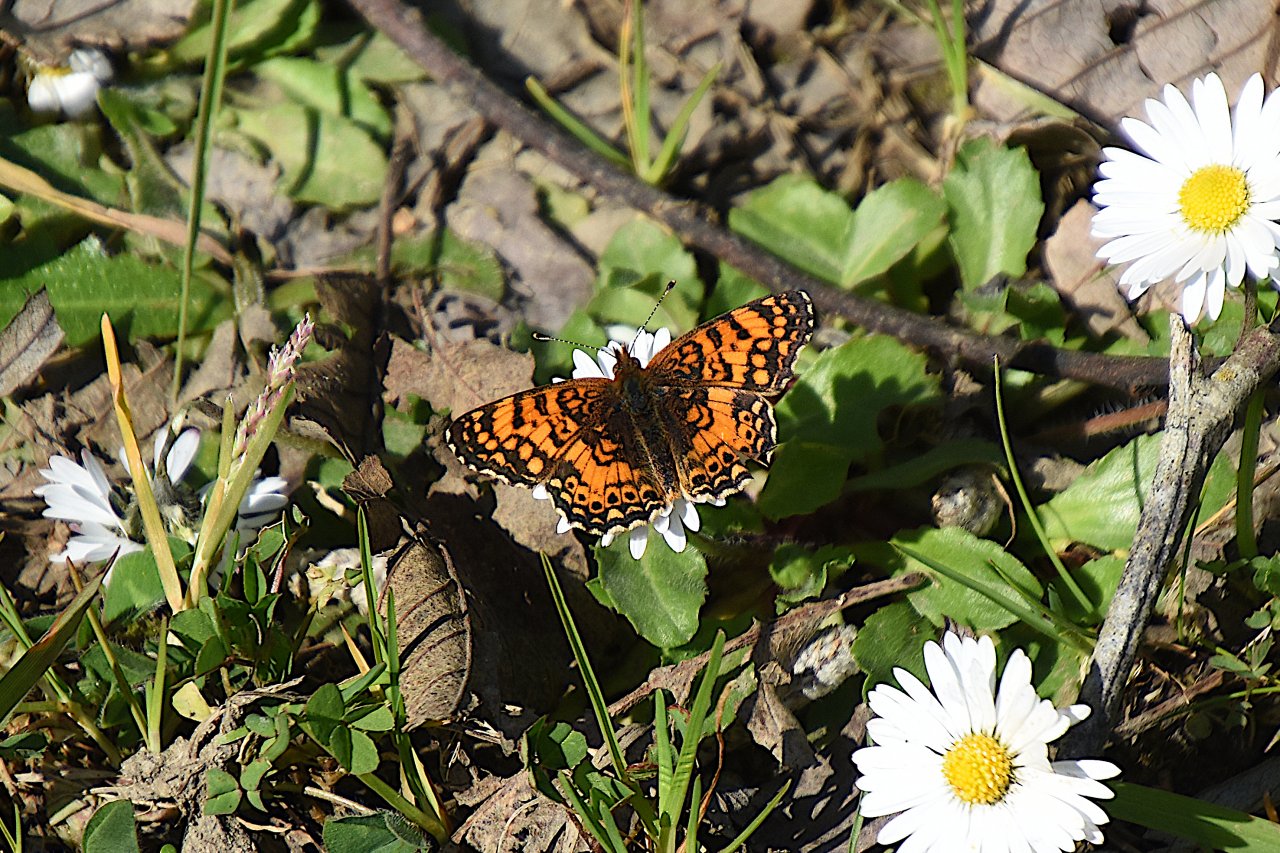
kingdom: Animalia
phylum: Arthropoda
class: Insecta
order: Lepidoptera
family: Nymphalidae
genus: Eresia
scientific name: Eresia aveyrona
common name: Mylitta Crescent
